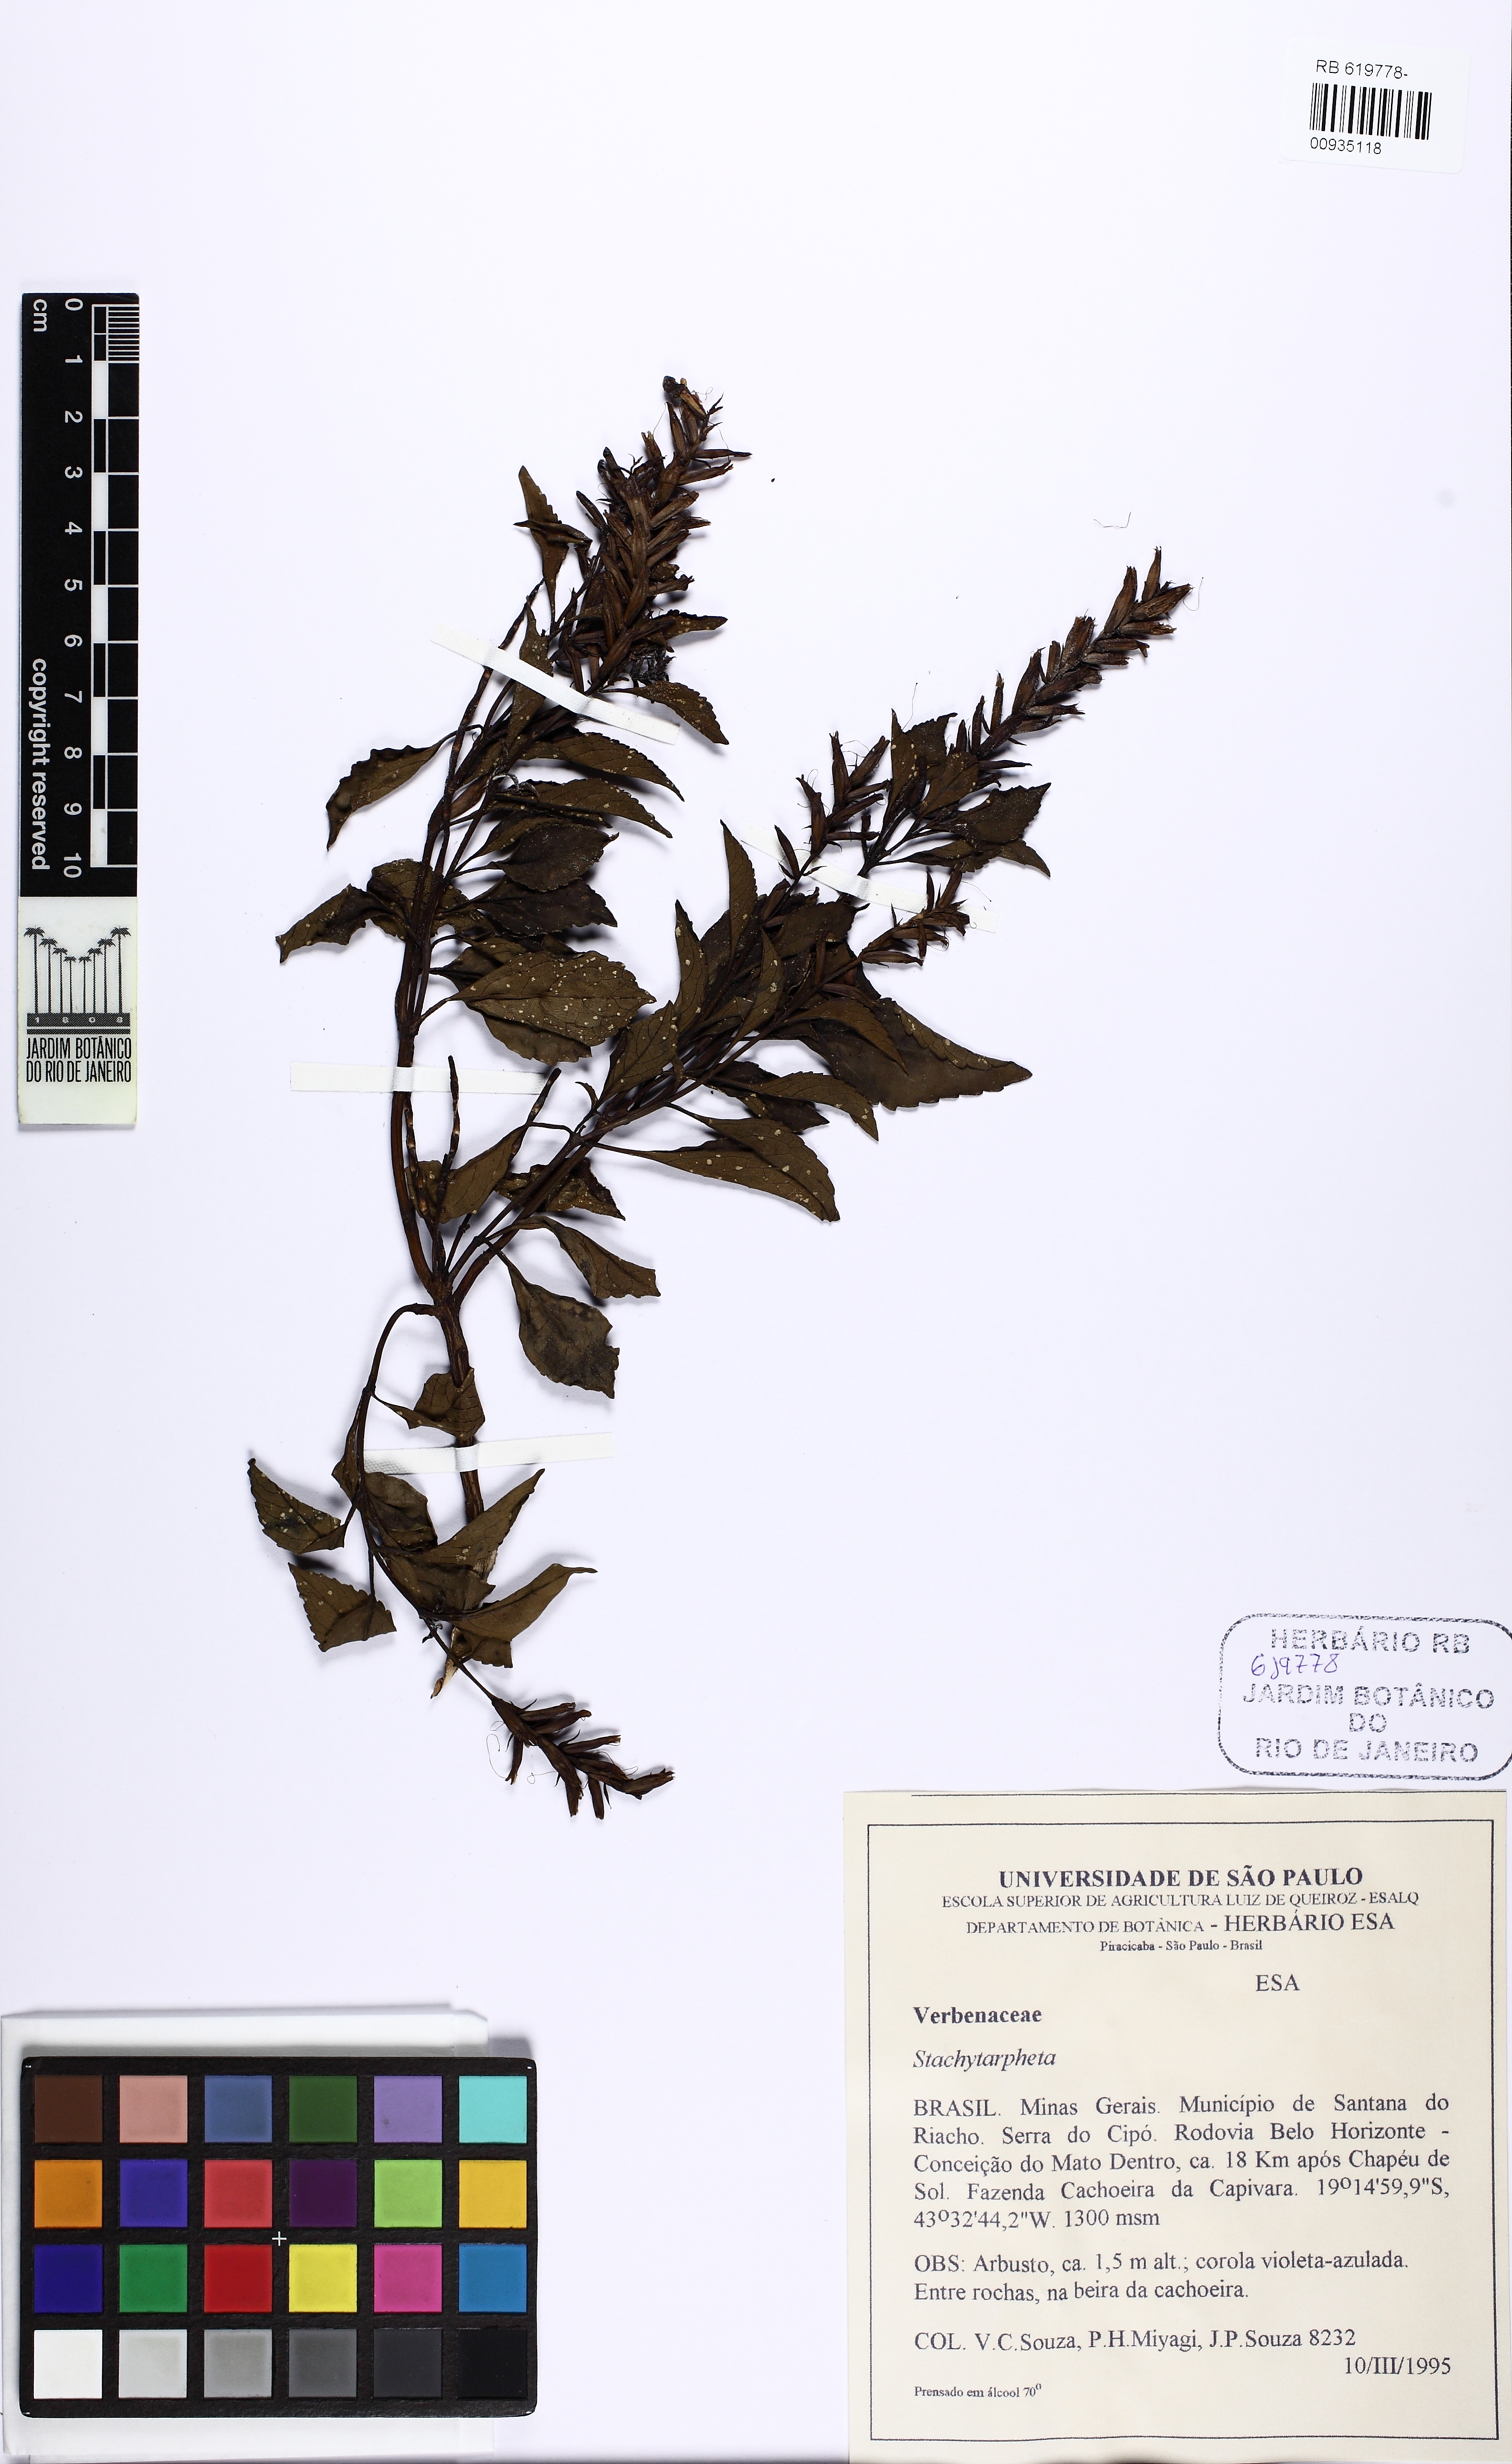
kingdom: Plantae
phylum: Tracheophyta
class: Magnoliopsida
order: Lamiales
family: Verbenaceae
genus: Stachytarpheta
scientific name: Stachytarpheta glabra
